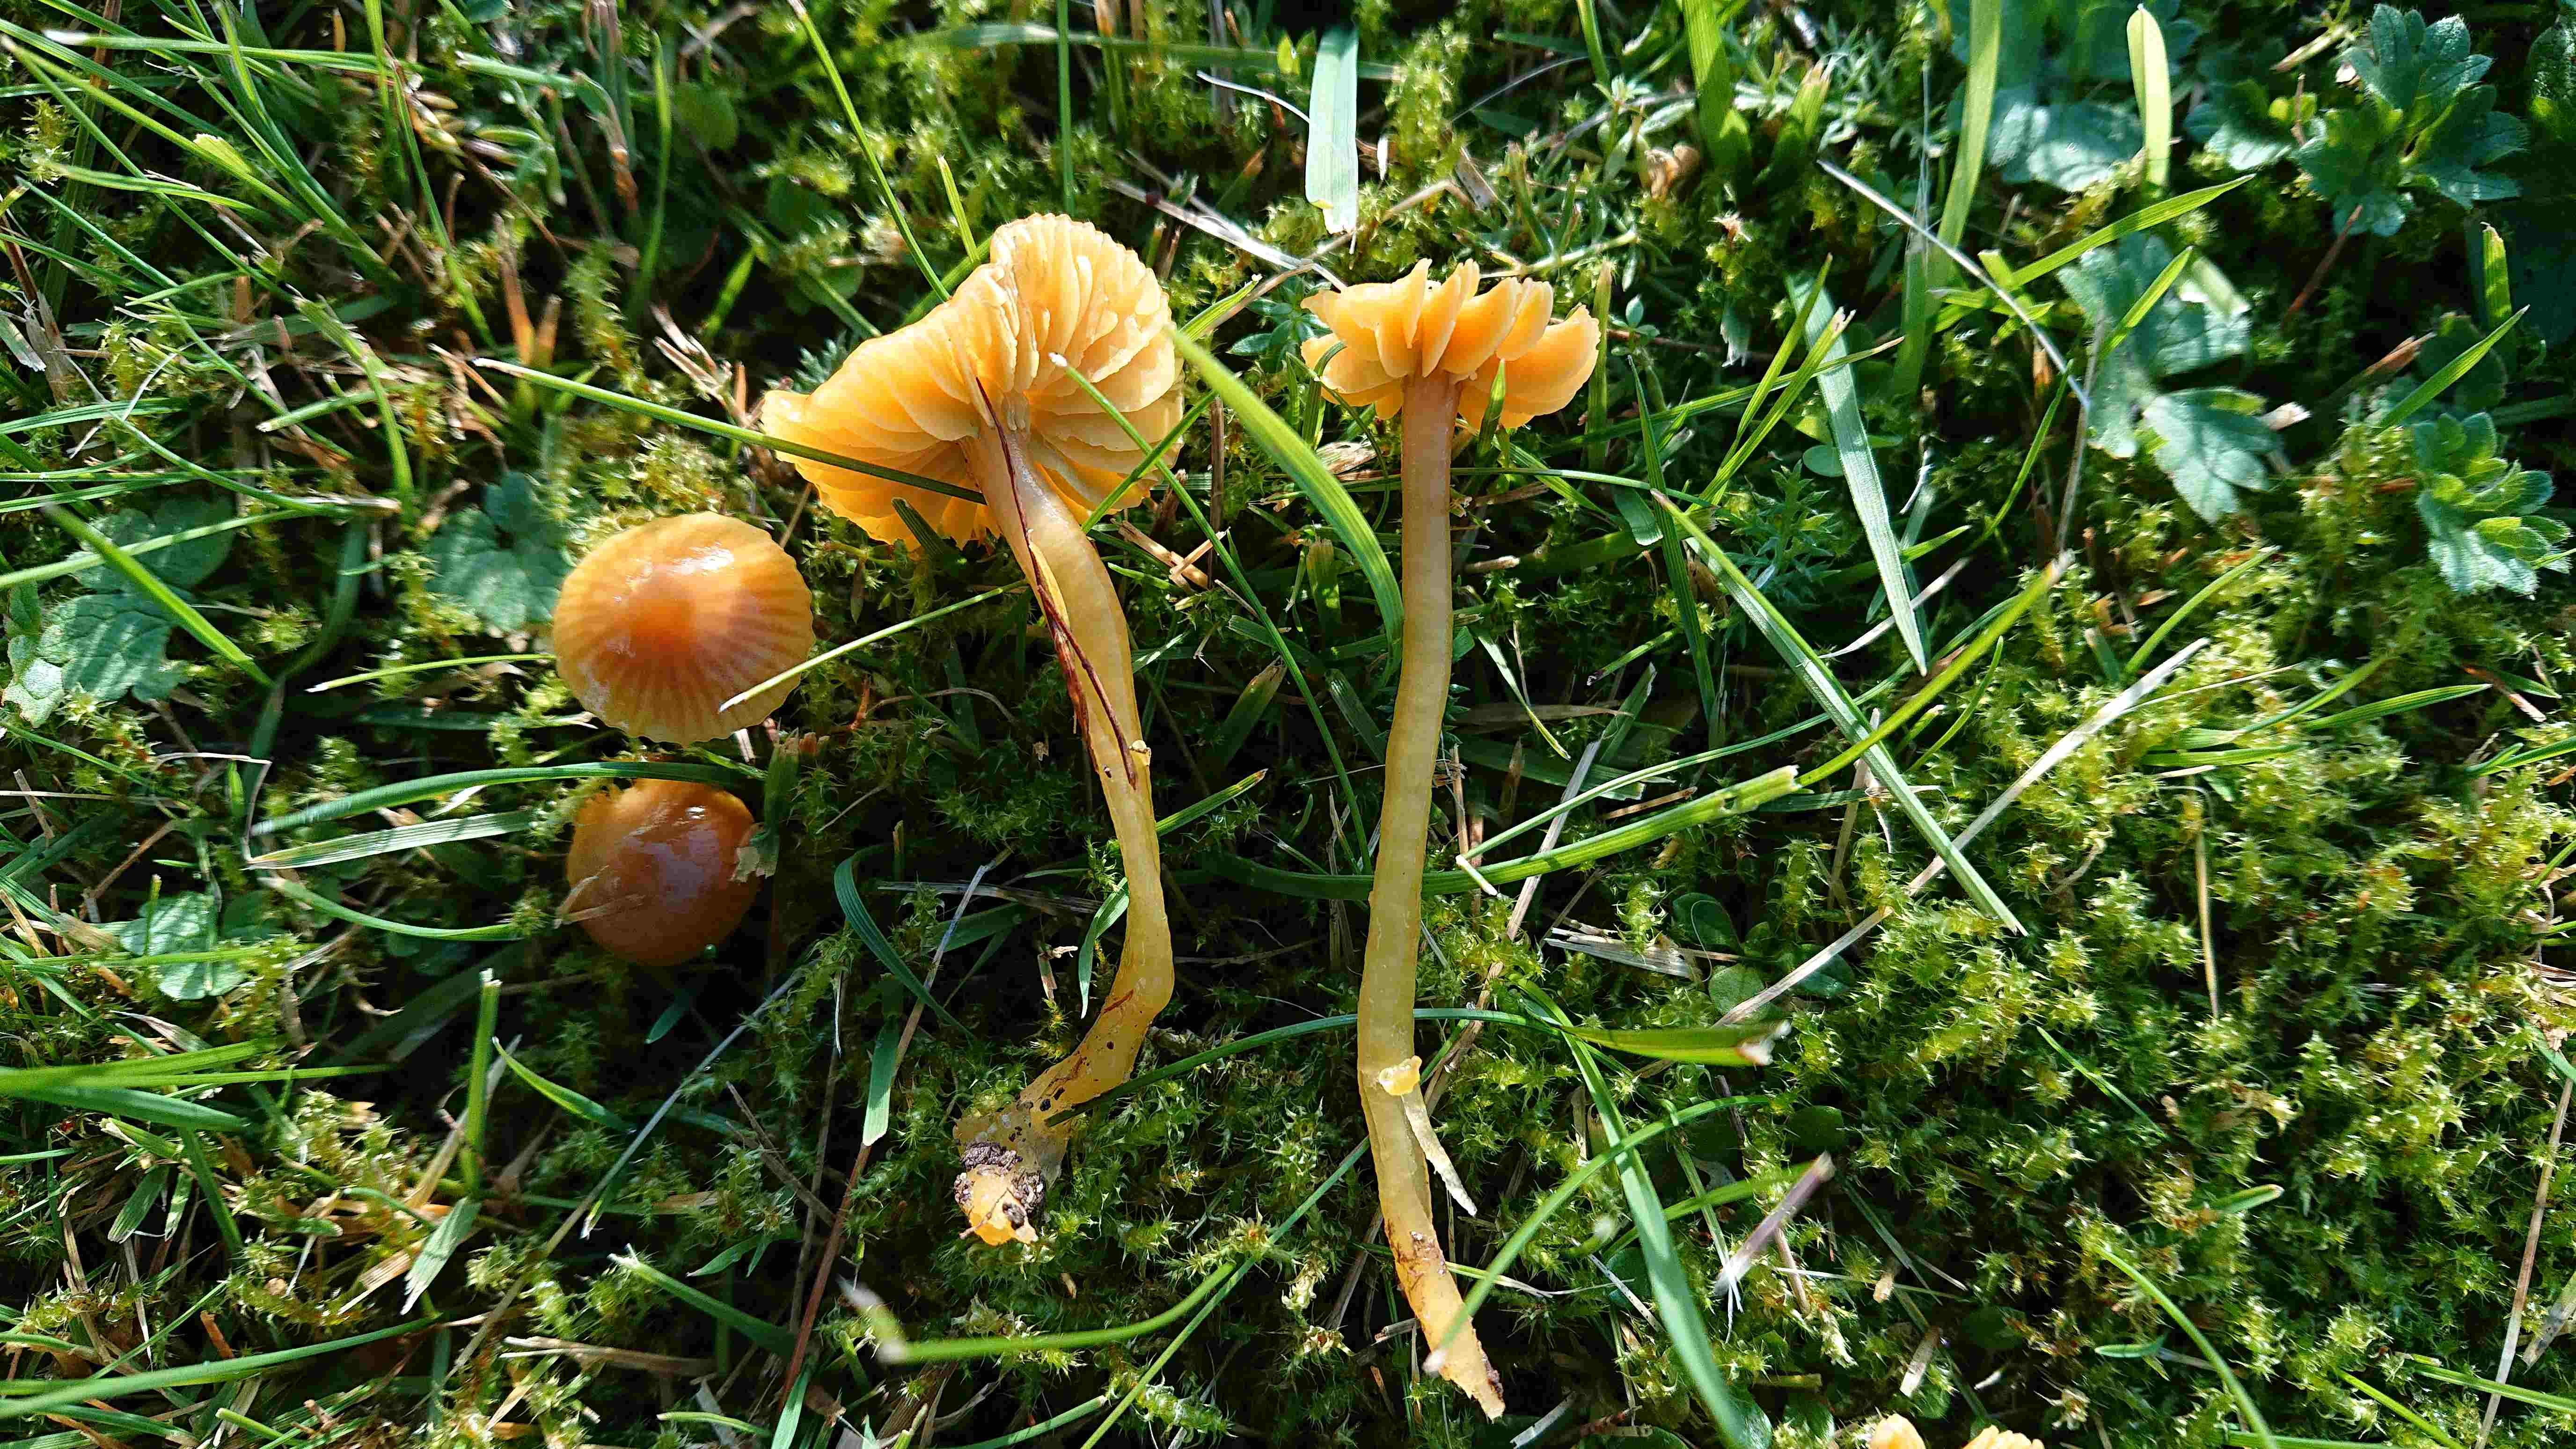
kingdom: Fungi
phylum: Basidiomycota
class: Agaricomycetes
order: Agaricales
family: Hygrophoraceae
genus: Gliophorus
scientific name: Gliophorus psittacinus
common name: papegøje-vokshat
